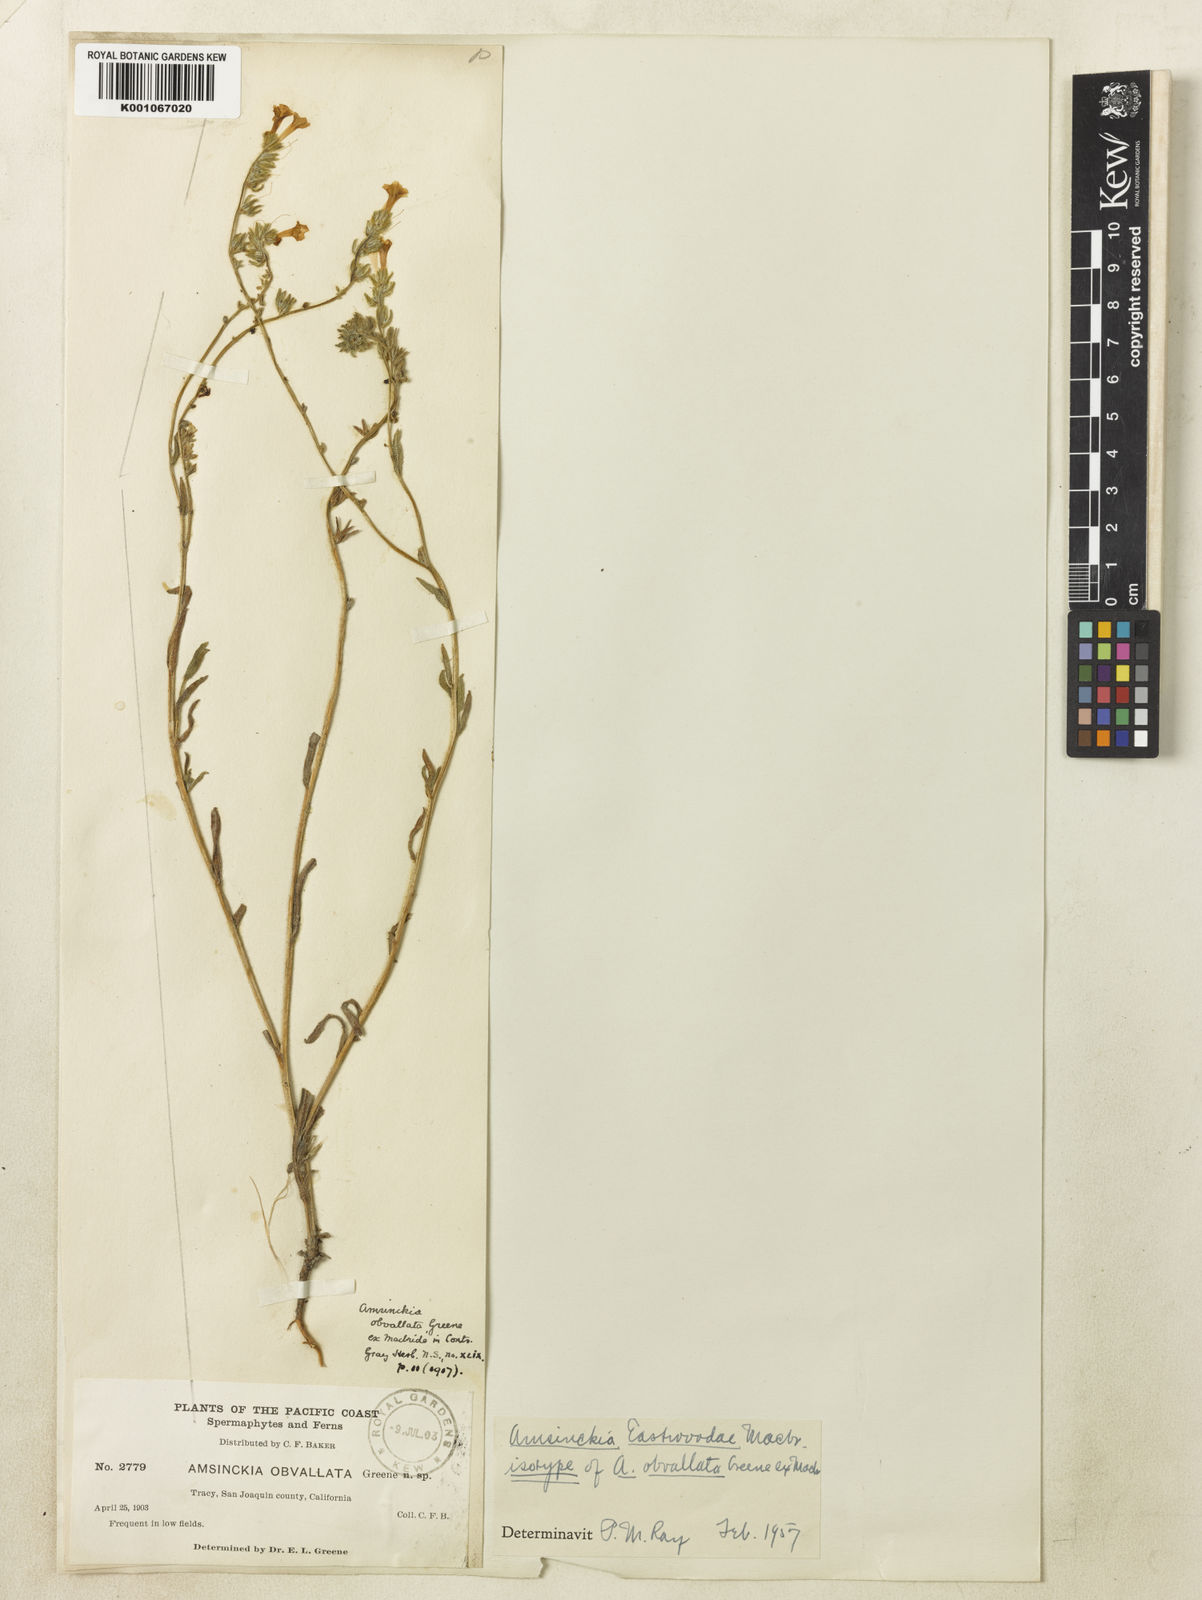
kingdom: Plantae
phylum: Tracheophyta
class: Magnoliopsida
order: Boraginales
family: Boraginaceae
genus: Amsinckia
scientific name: Amsinckia eastwoodiae
